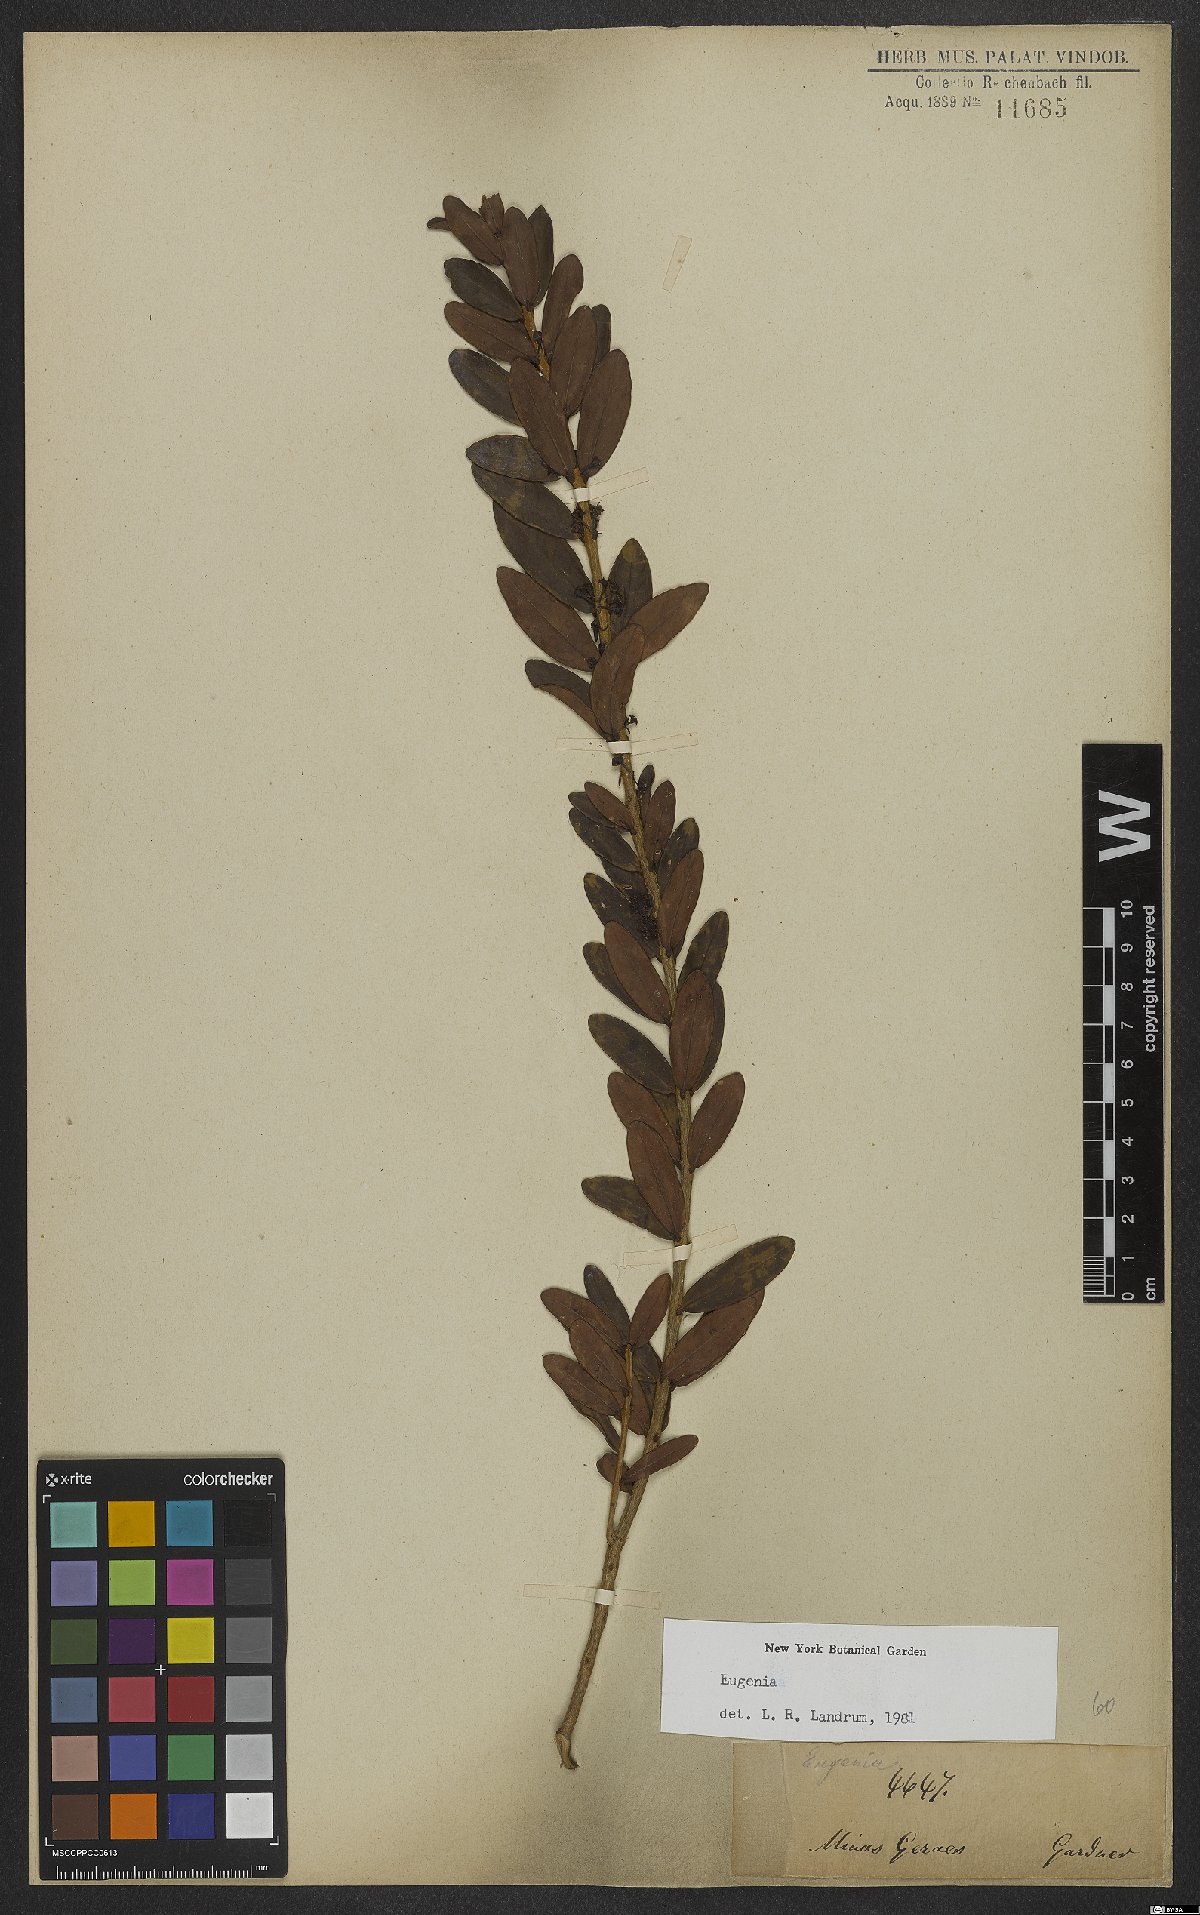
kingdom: Plantae
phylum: Tracheophyta
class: Magnoliopsida
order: Myrtales
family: Myrtaceae
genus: Eugenia
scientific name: Eugenia
